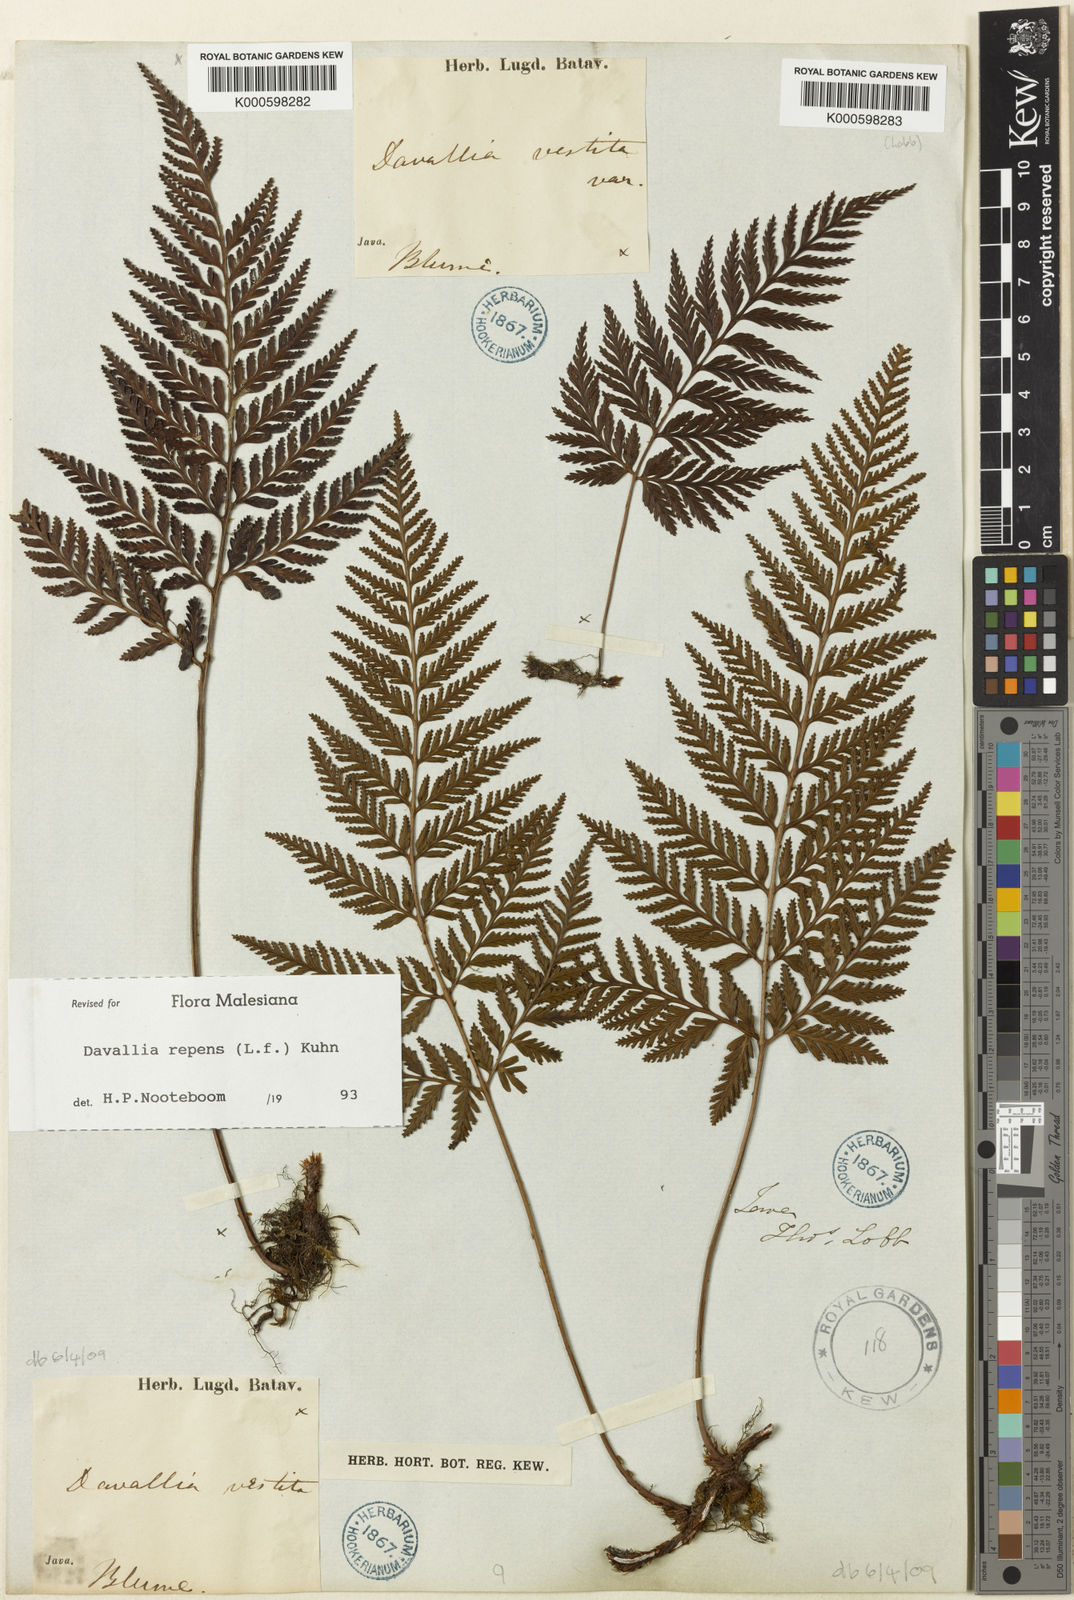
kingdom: Plantae
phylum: Tracheophyta
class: Polypodiopsida
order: Polypodiales
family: Davalliaceae
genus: Davallia
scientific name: Davallia repens
